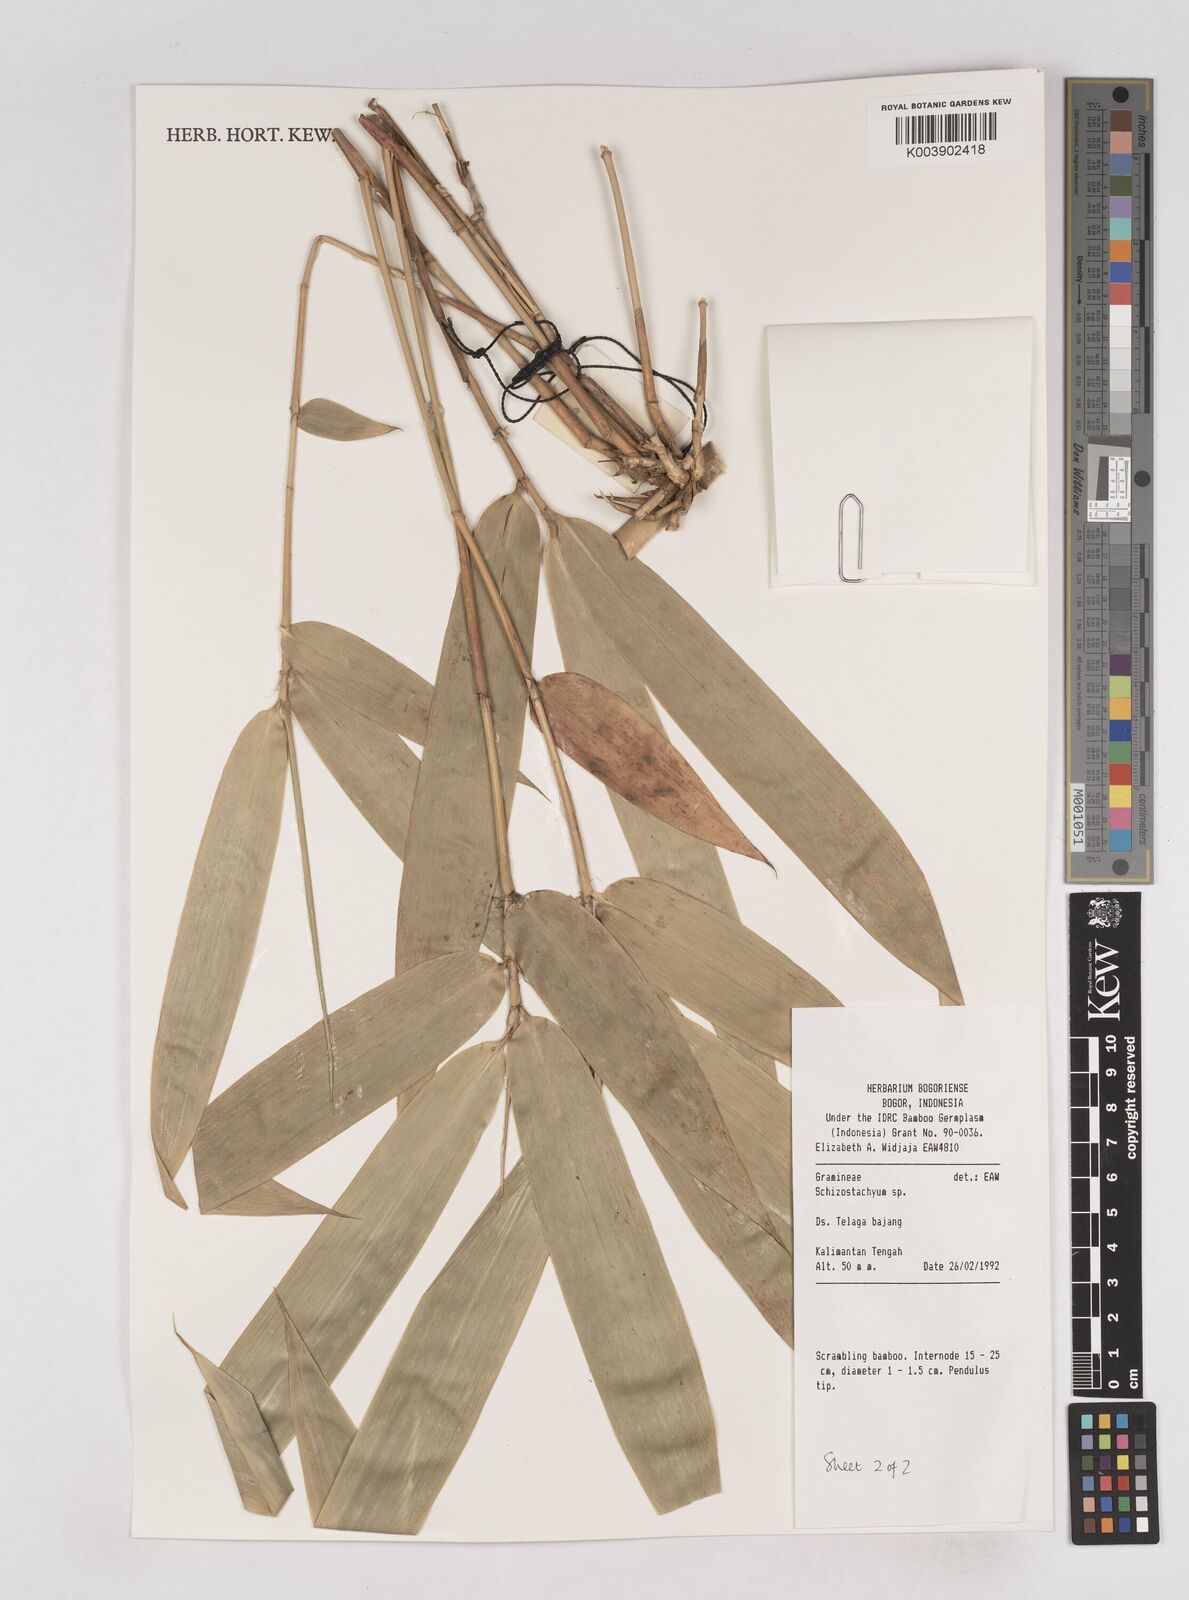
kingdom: Plantae
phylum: Tracheophyta
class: Liliopsida
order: Poales
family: Poaceae
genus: Schizostachyum
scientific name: Schizostachyum
